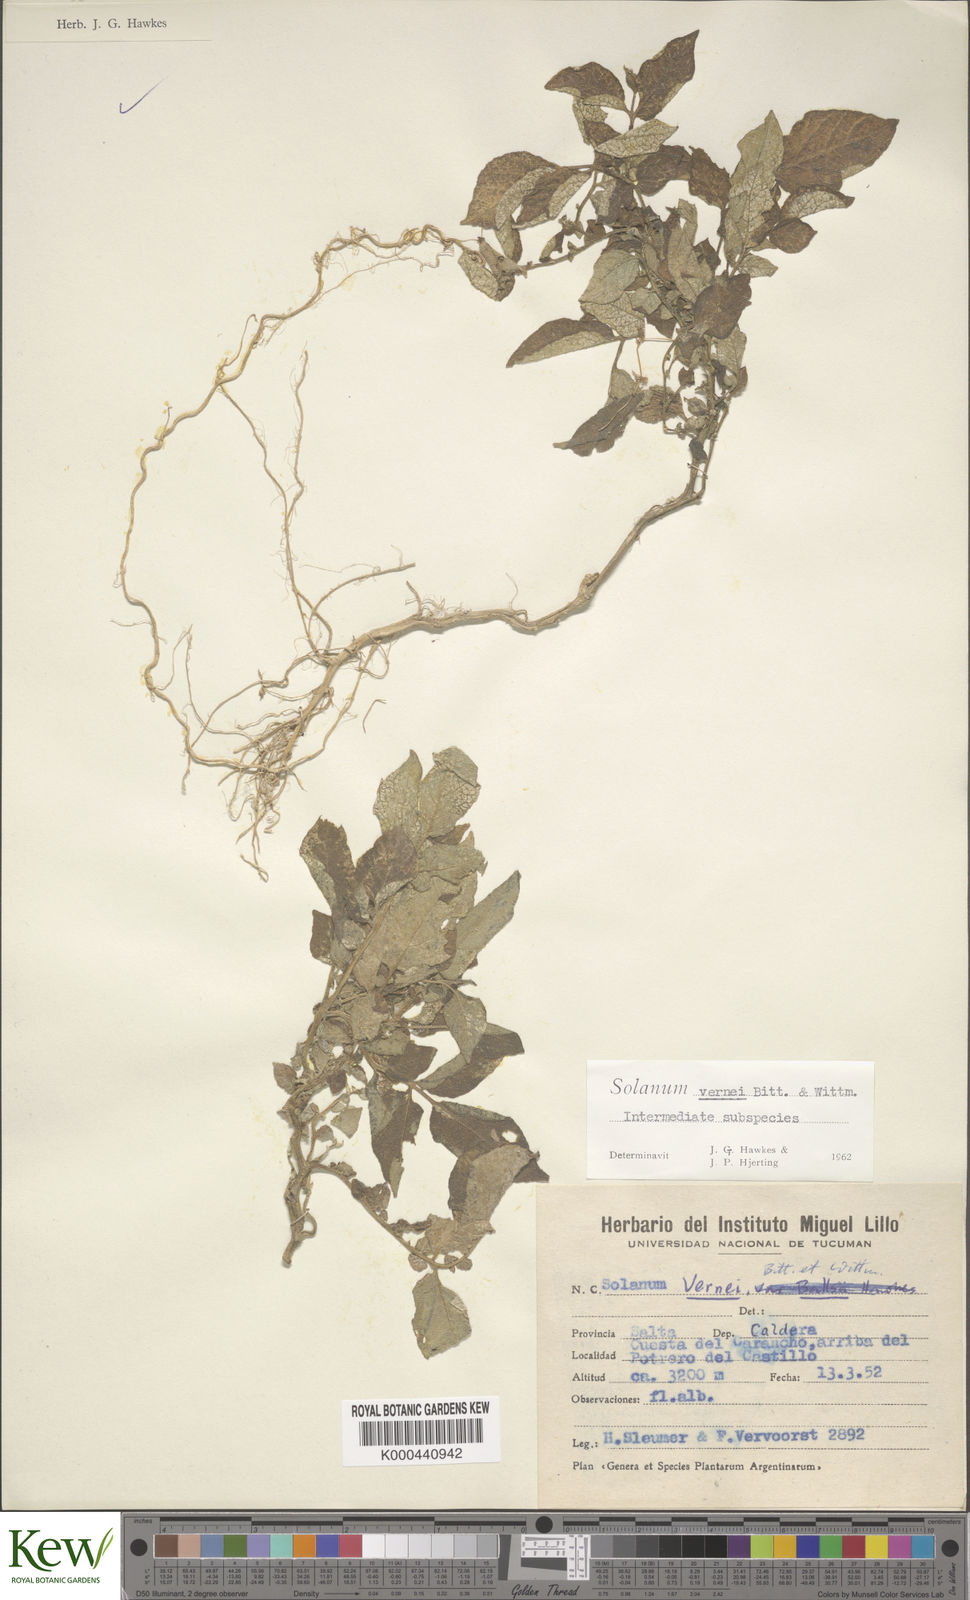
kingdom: Plantae
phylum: Tracheophyta
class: Magnoliopsida
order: Solanales
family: Solanaceae
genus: Solanum
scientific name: Solanum vernei
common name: Purple potato
